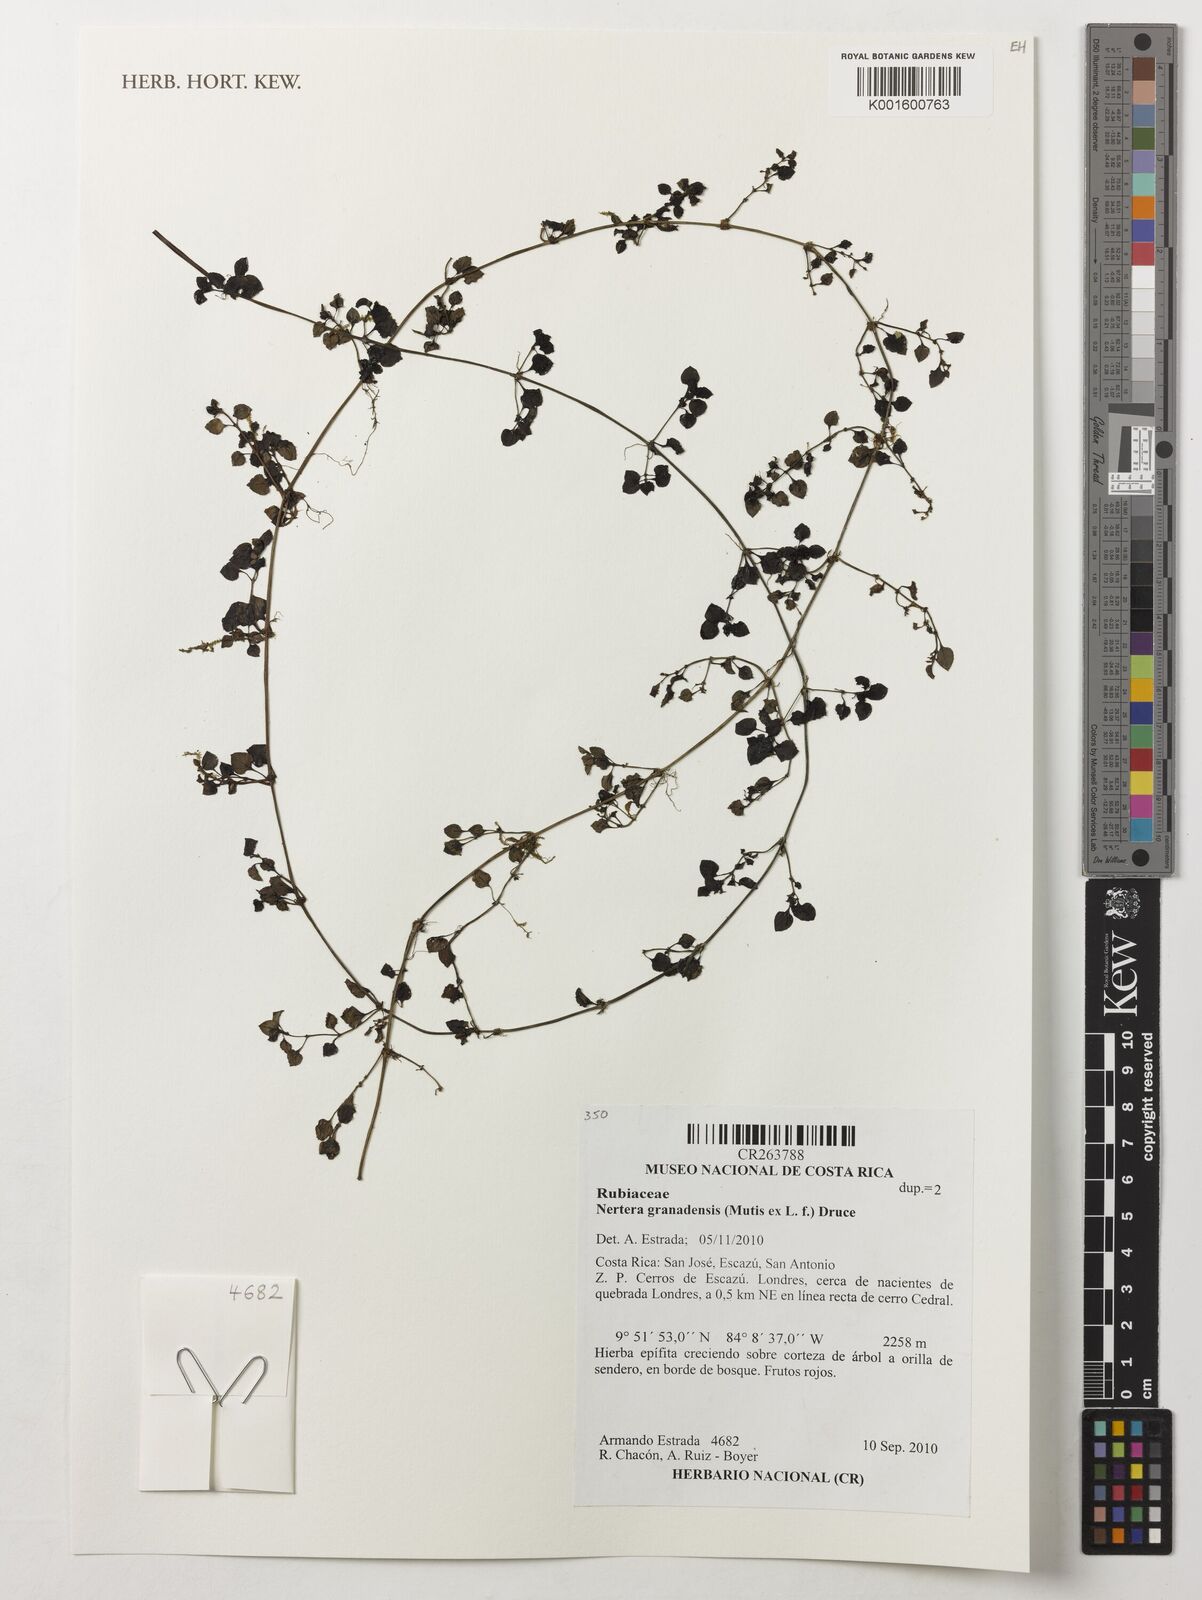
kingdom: Plantae
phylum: Tracheophyta
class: Magnoliopsida
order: Gentianales
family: Rubiaceae
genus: Nertera
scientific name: Nertera granadensis
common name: Beadplant
